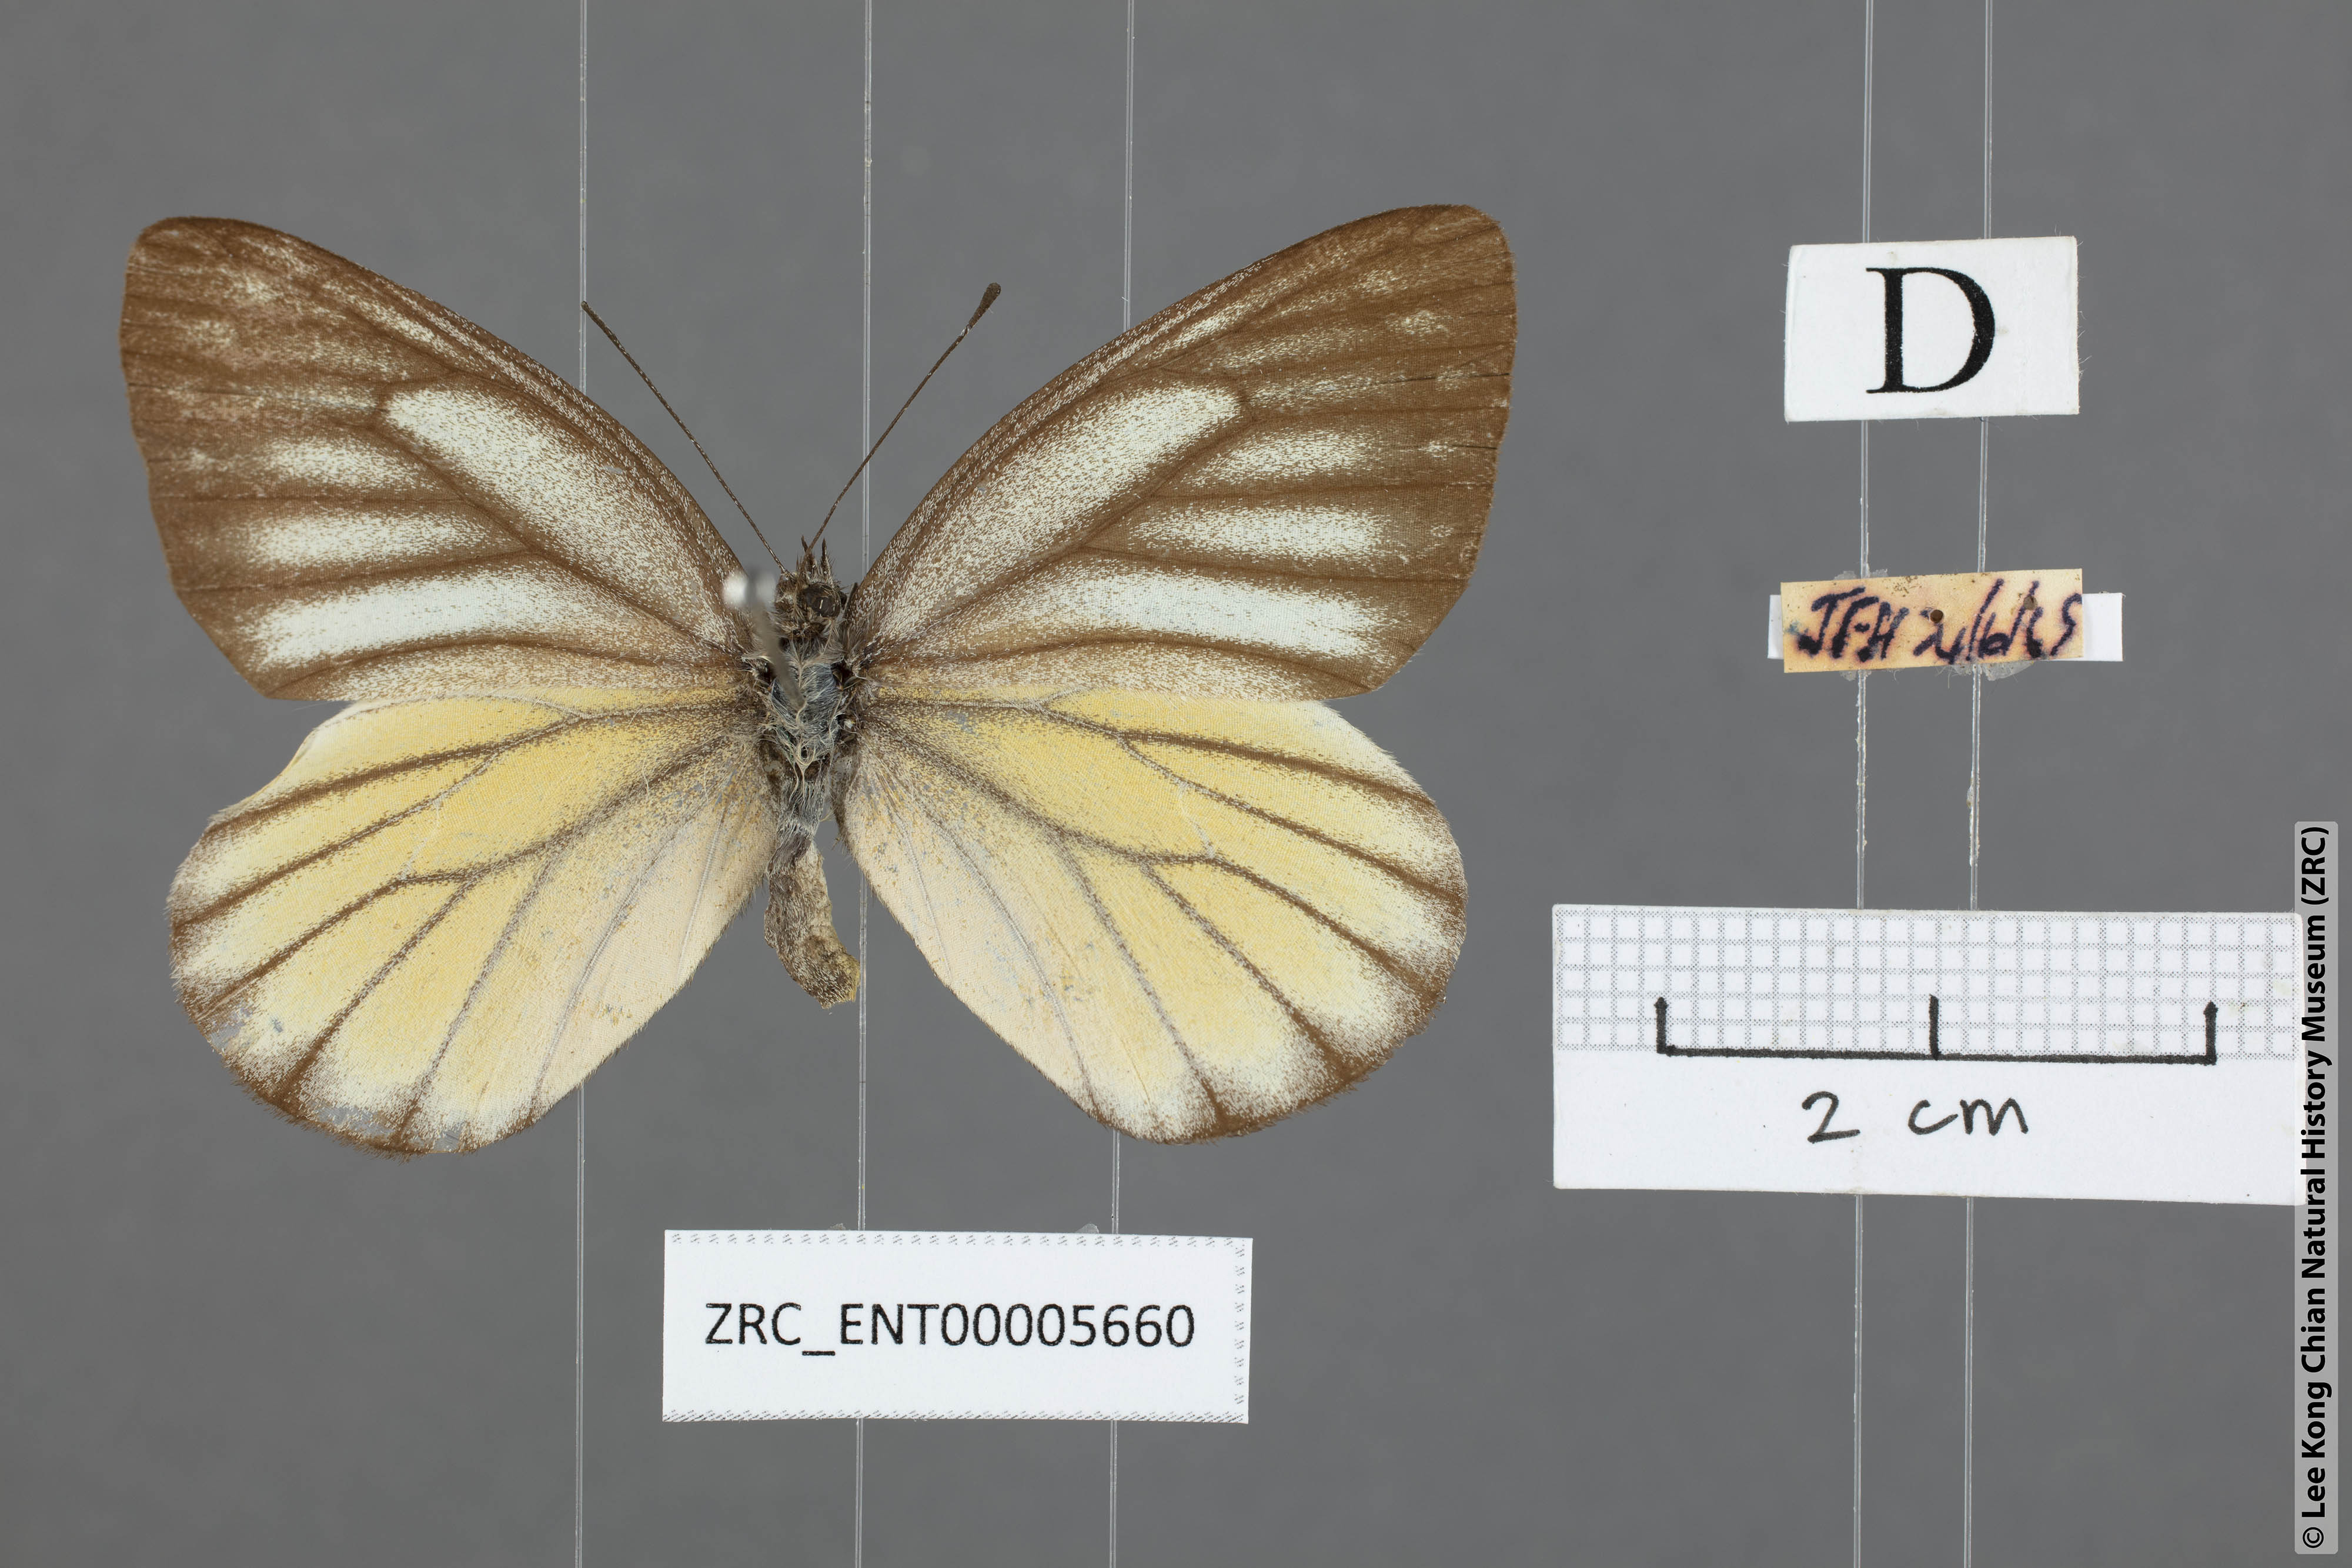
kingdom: Animalia
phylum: Arthropoda
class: Insecta
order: Lepidoptera
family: Pieridae
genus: Delias
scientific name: Delias baracasa
